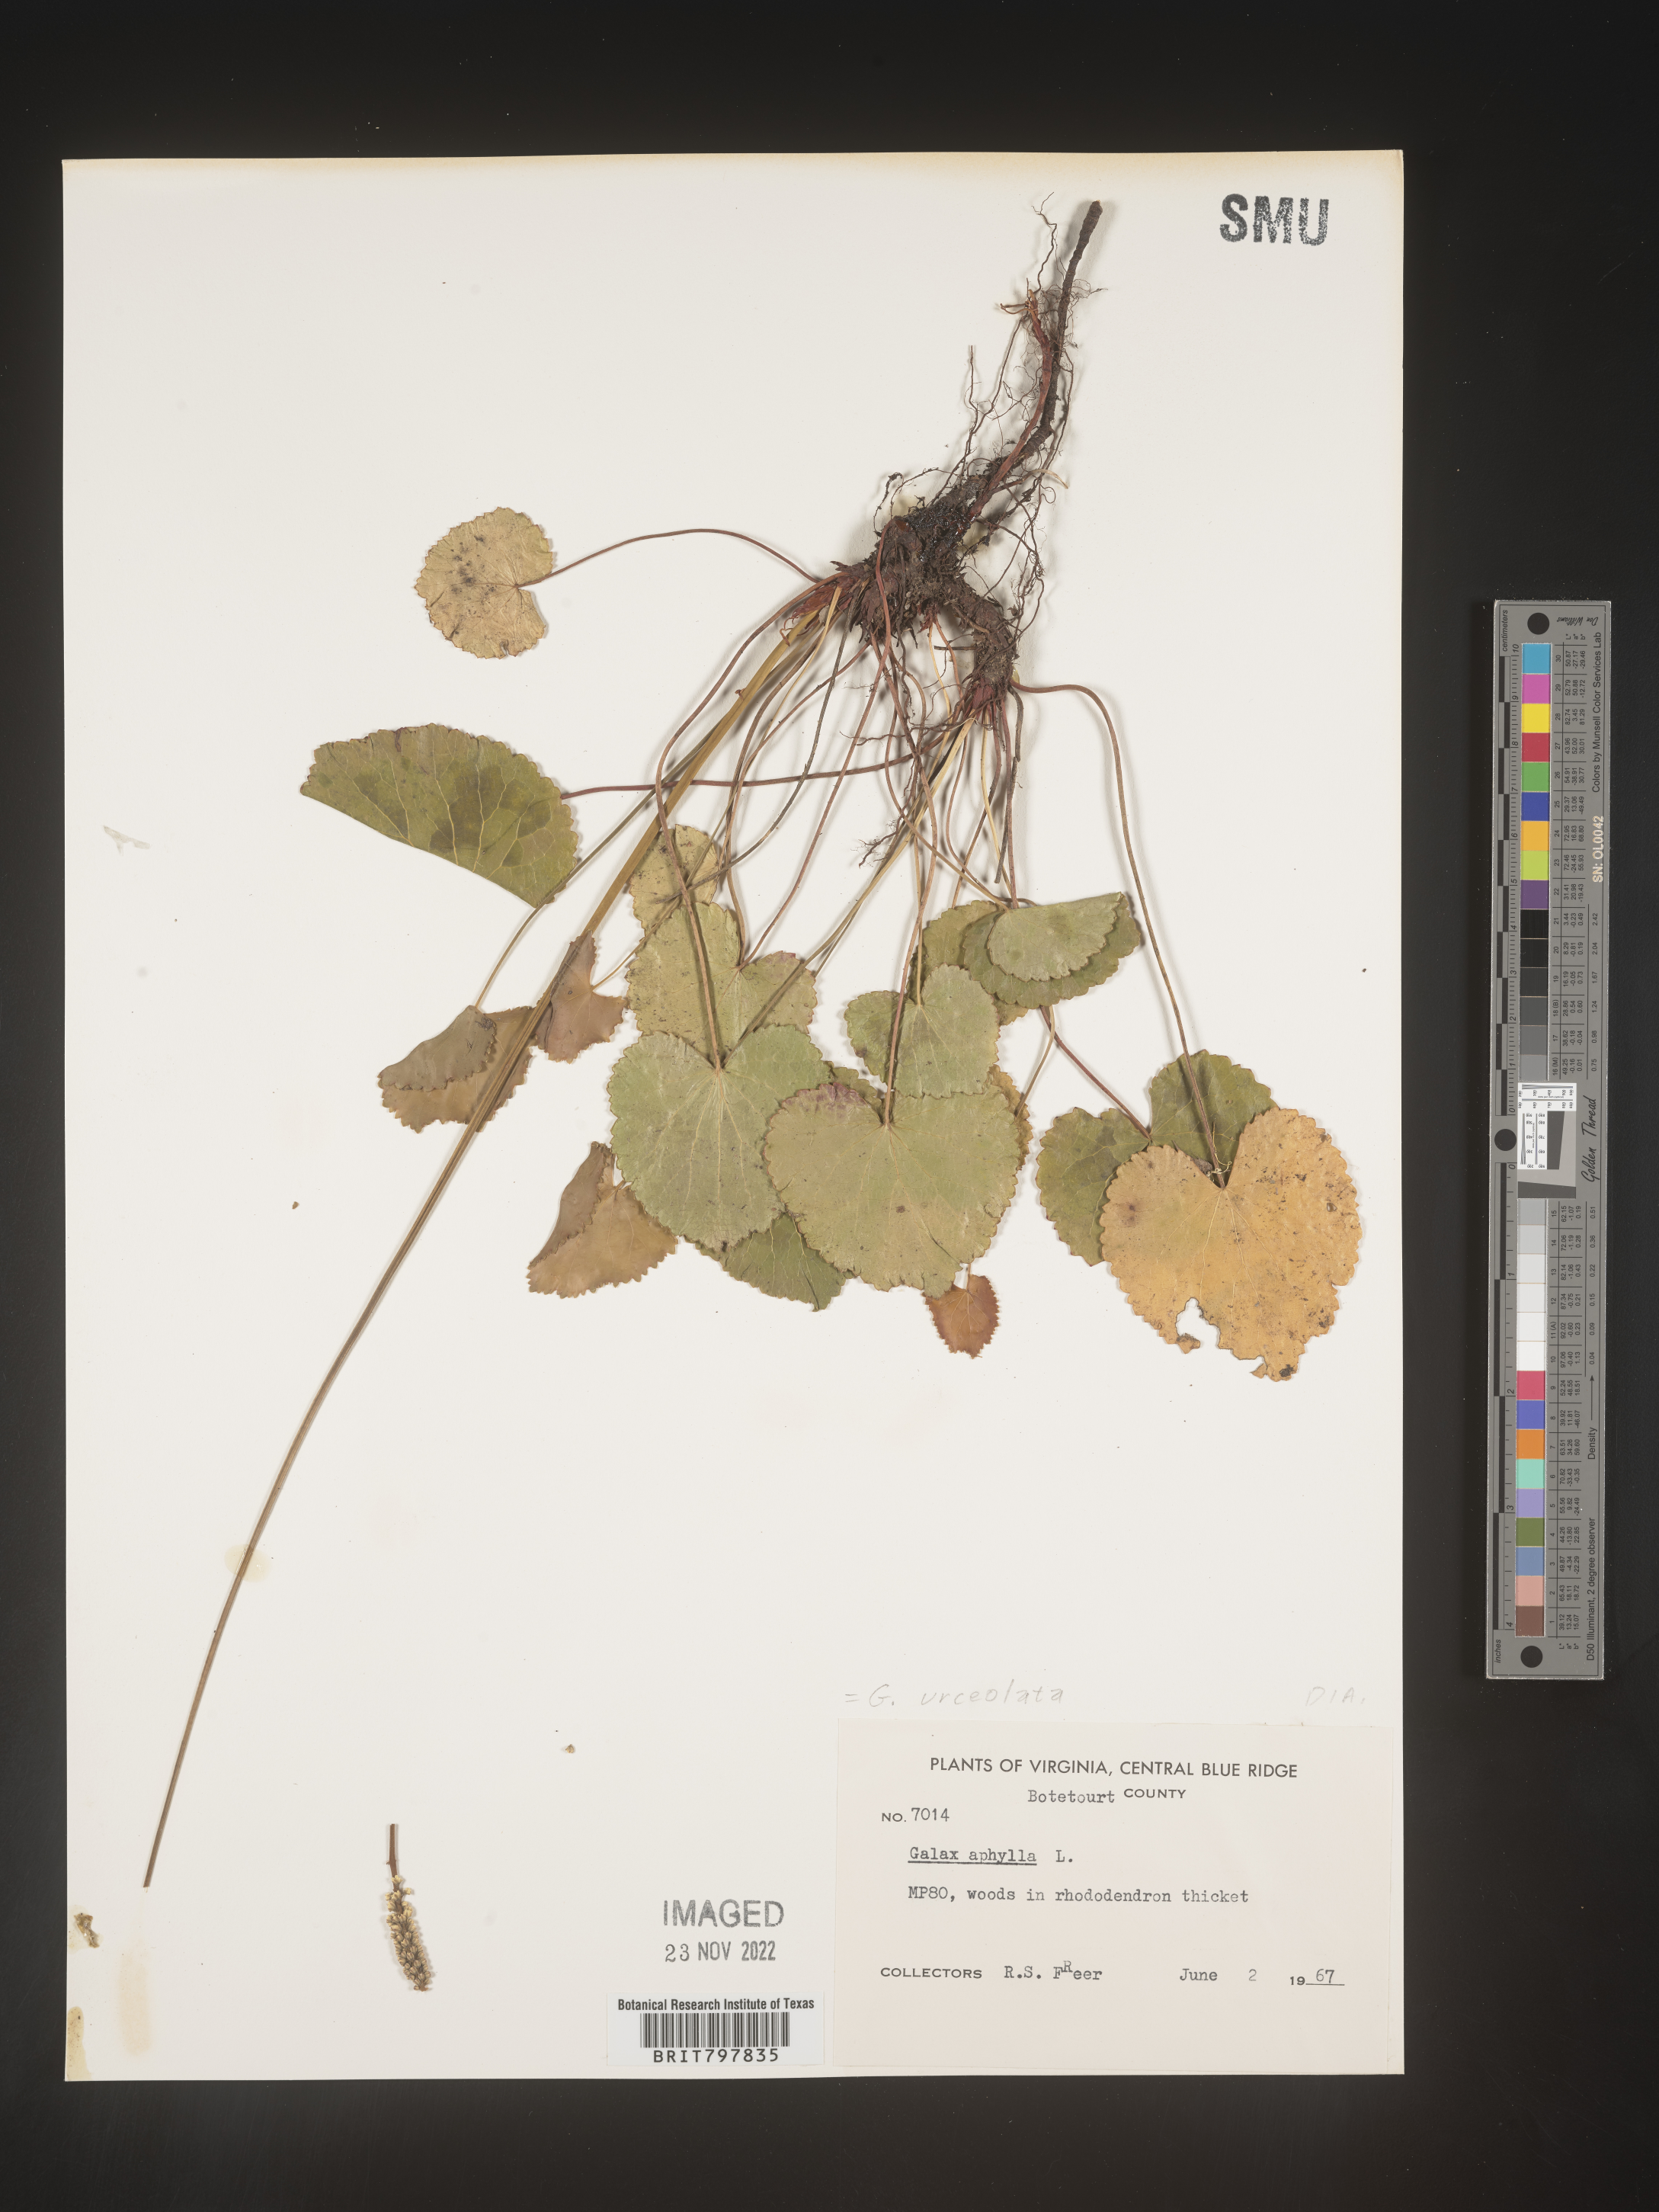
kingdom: Plantae
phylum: Tracheophyta
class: Magnoliopsida
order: Ericales
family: Diapensiaceae
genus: Galax
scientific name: Galax
